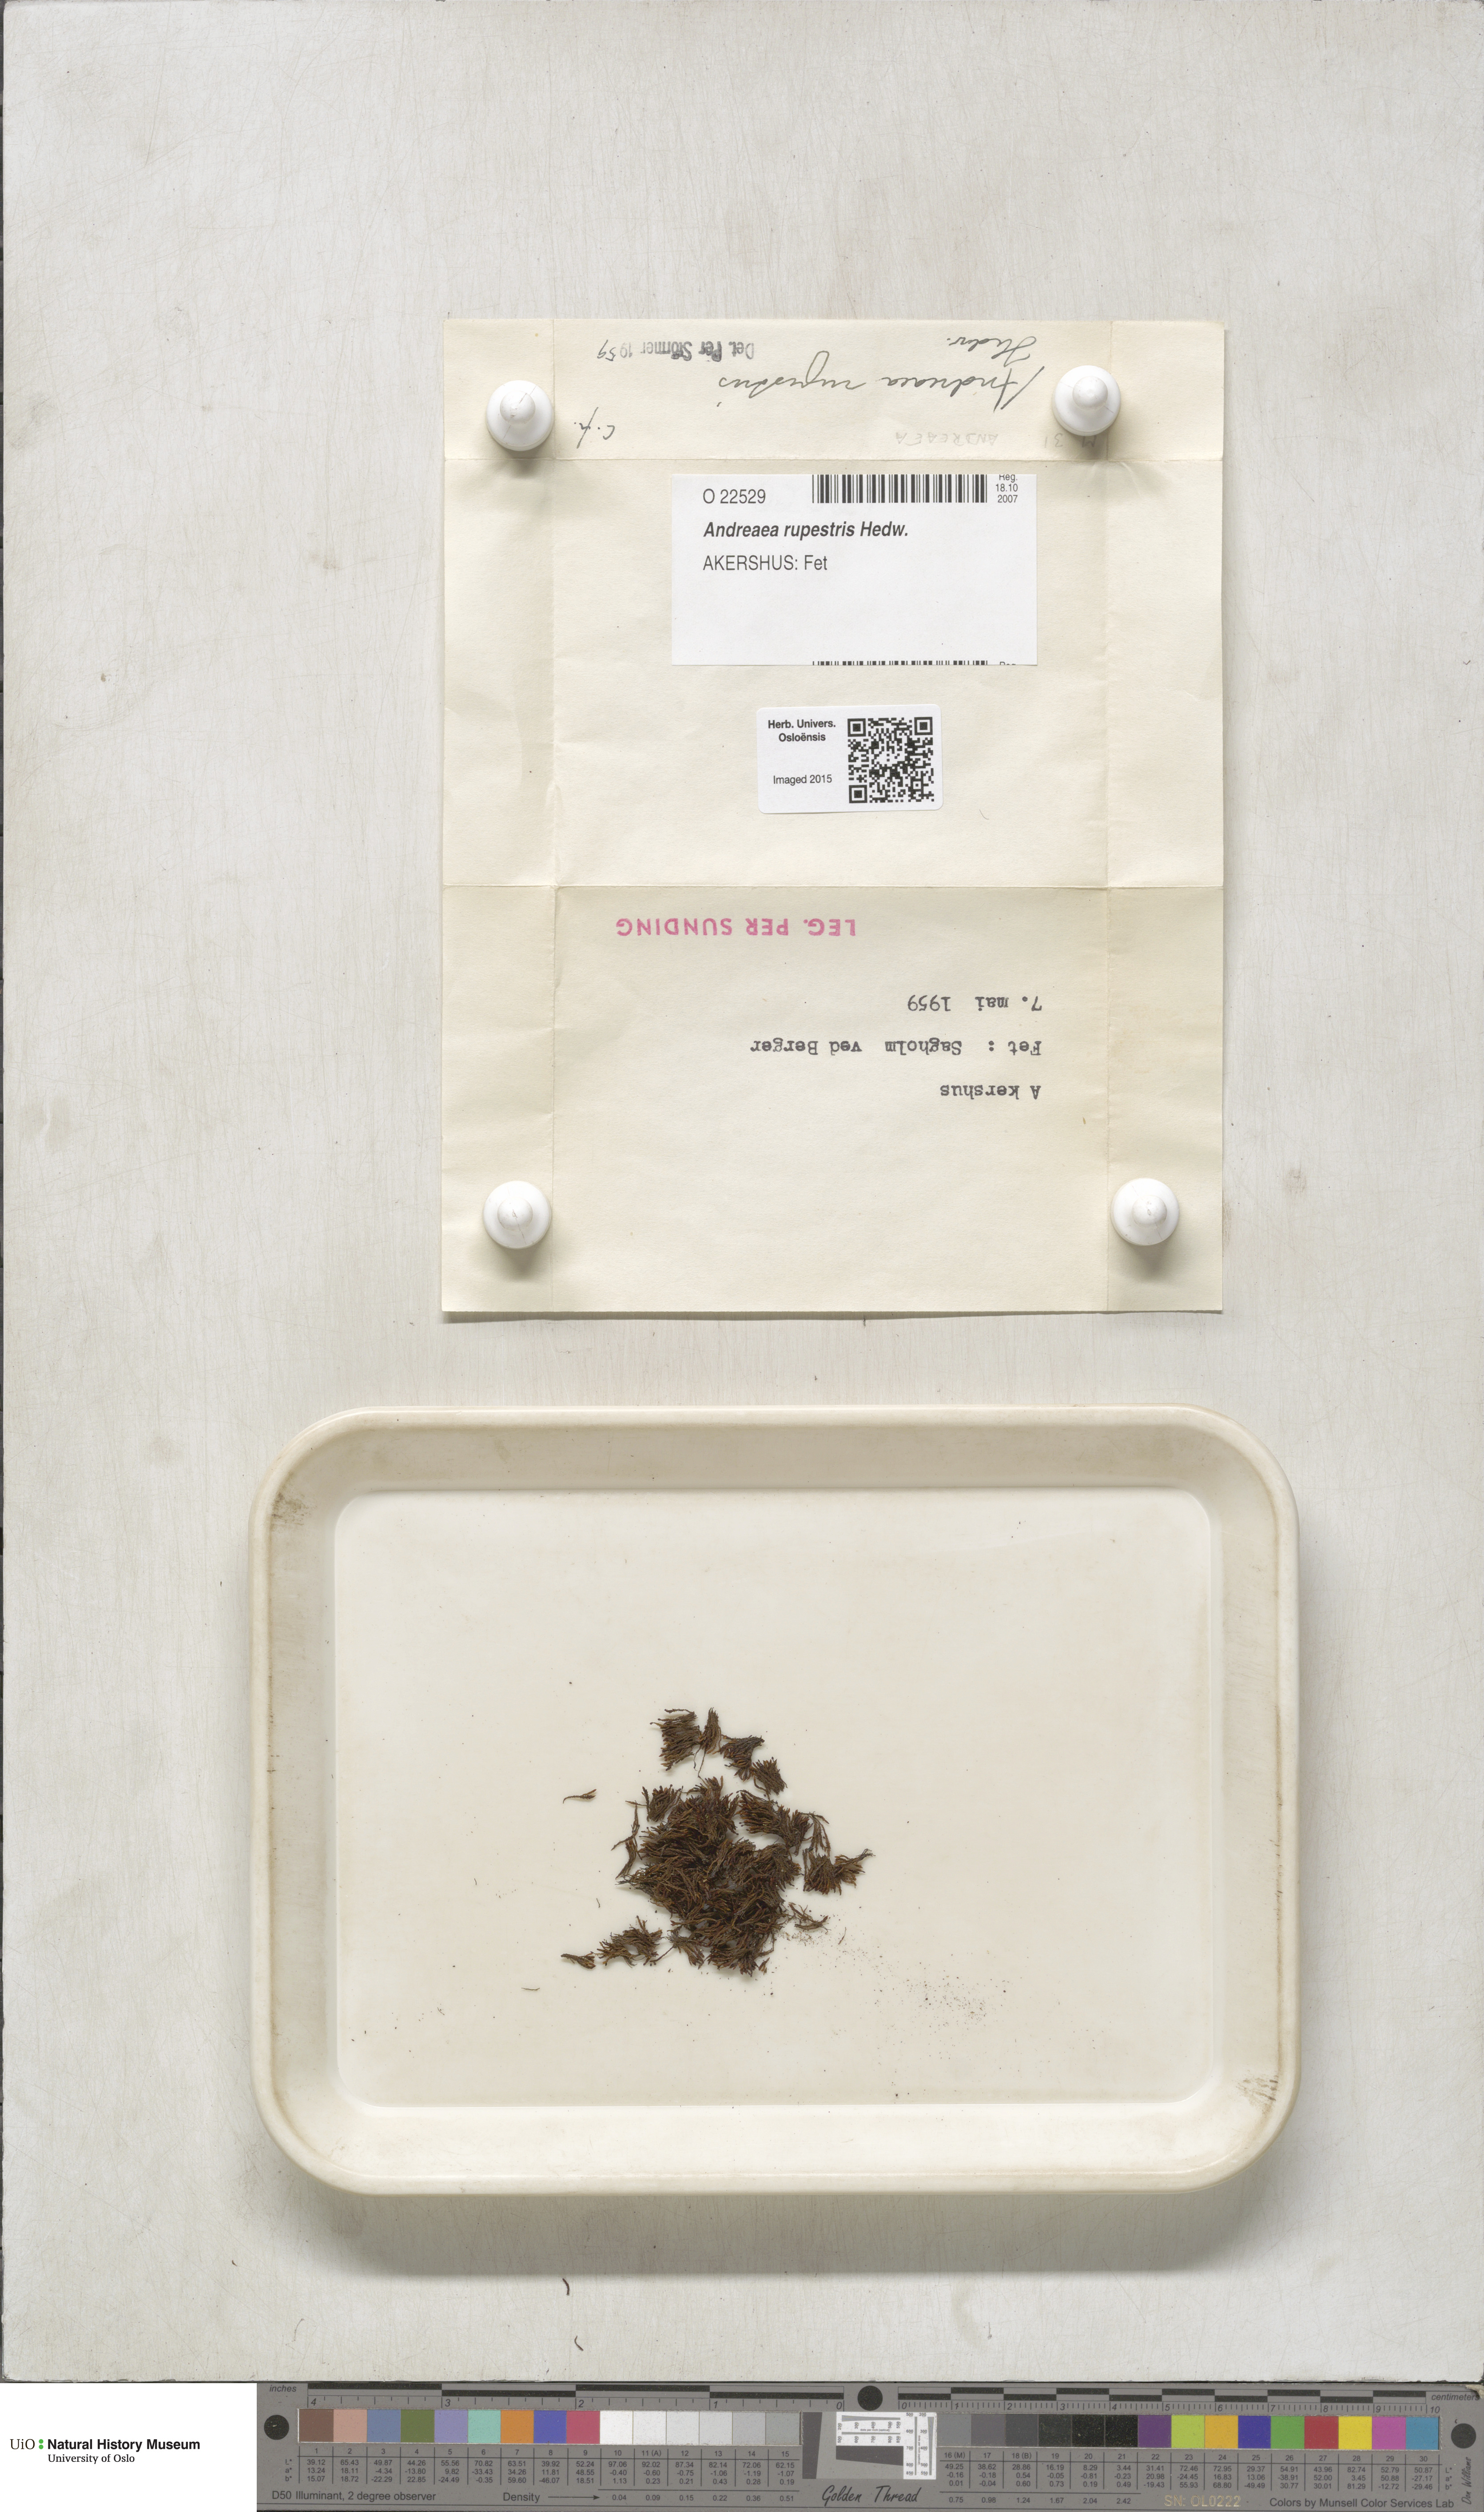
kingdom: Plantae
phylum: Bryophyta
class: Andreaeopsida
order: Andreaeales
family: Andreaeaceae
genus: Andreaea
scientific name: Andreaea rupestris
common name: Black rock moss
